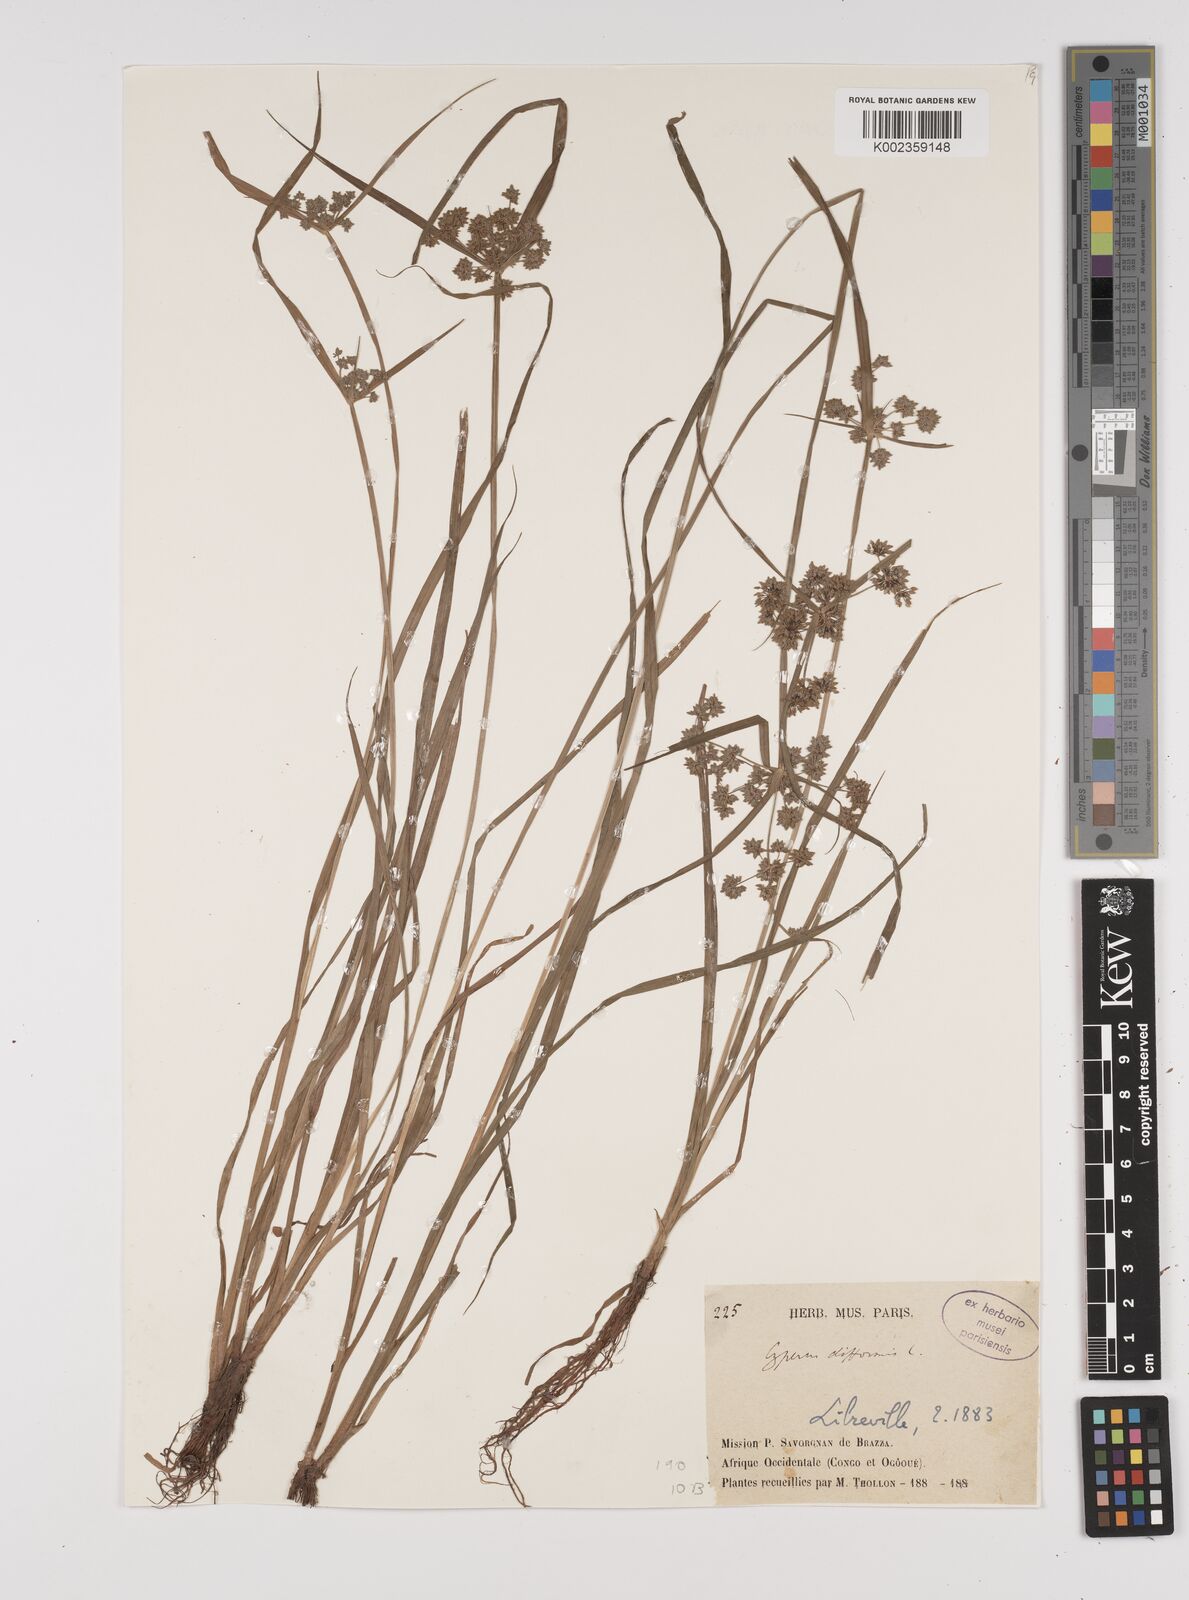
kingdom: Plantae
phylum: Tracheophyta
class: Liliopsida
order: Poales
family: Cyperaceae
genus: Cyperus
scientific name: Cyperus difformis
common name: Variable flatsedge
